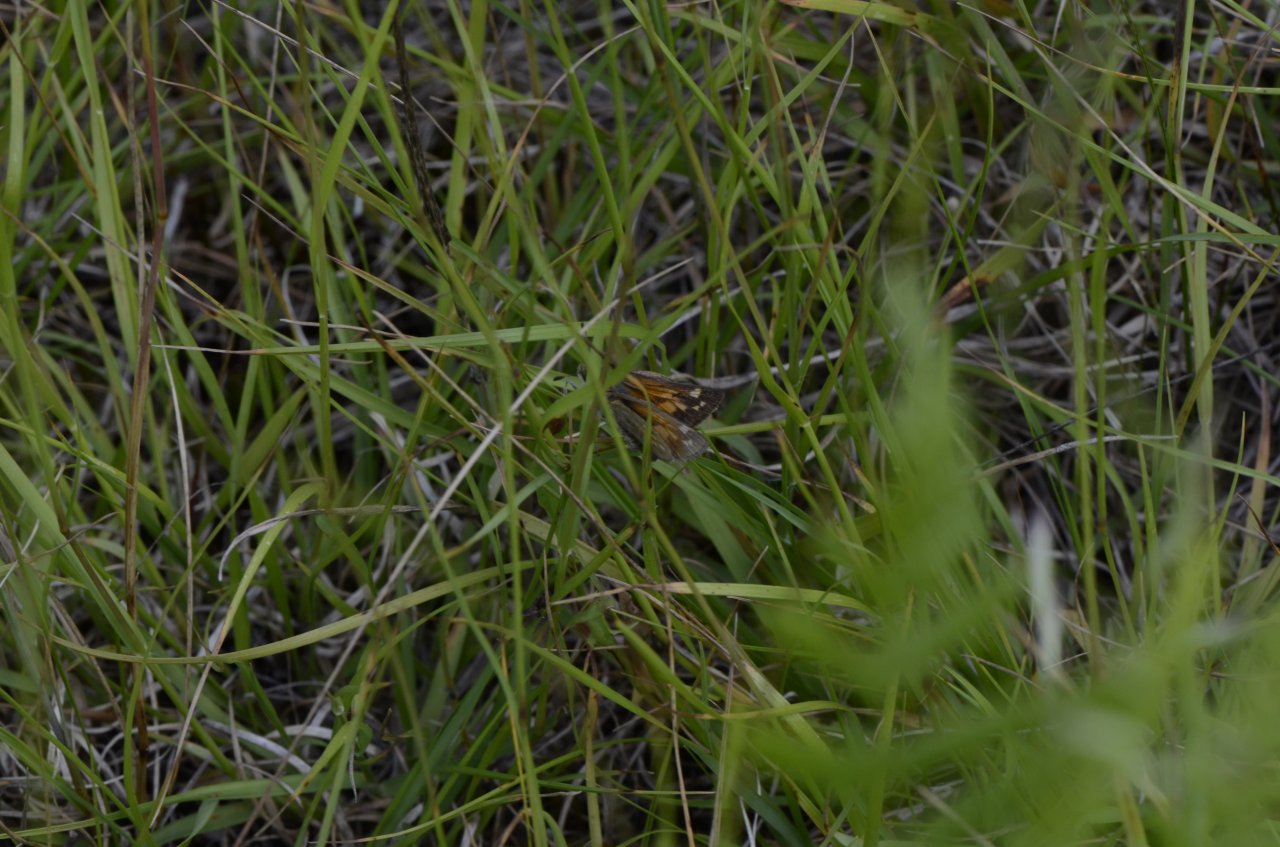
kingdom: Animalia
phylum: Arthropoda
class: Insecta
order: Lepidoptera
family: Hesperiidae
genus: Polites
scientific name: Polites coras
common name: Peck's Skipper
